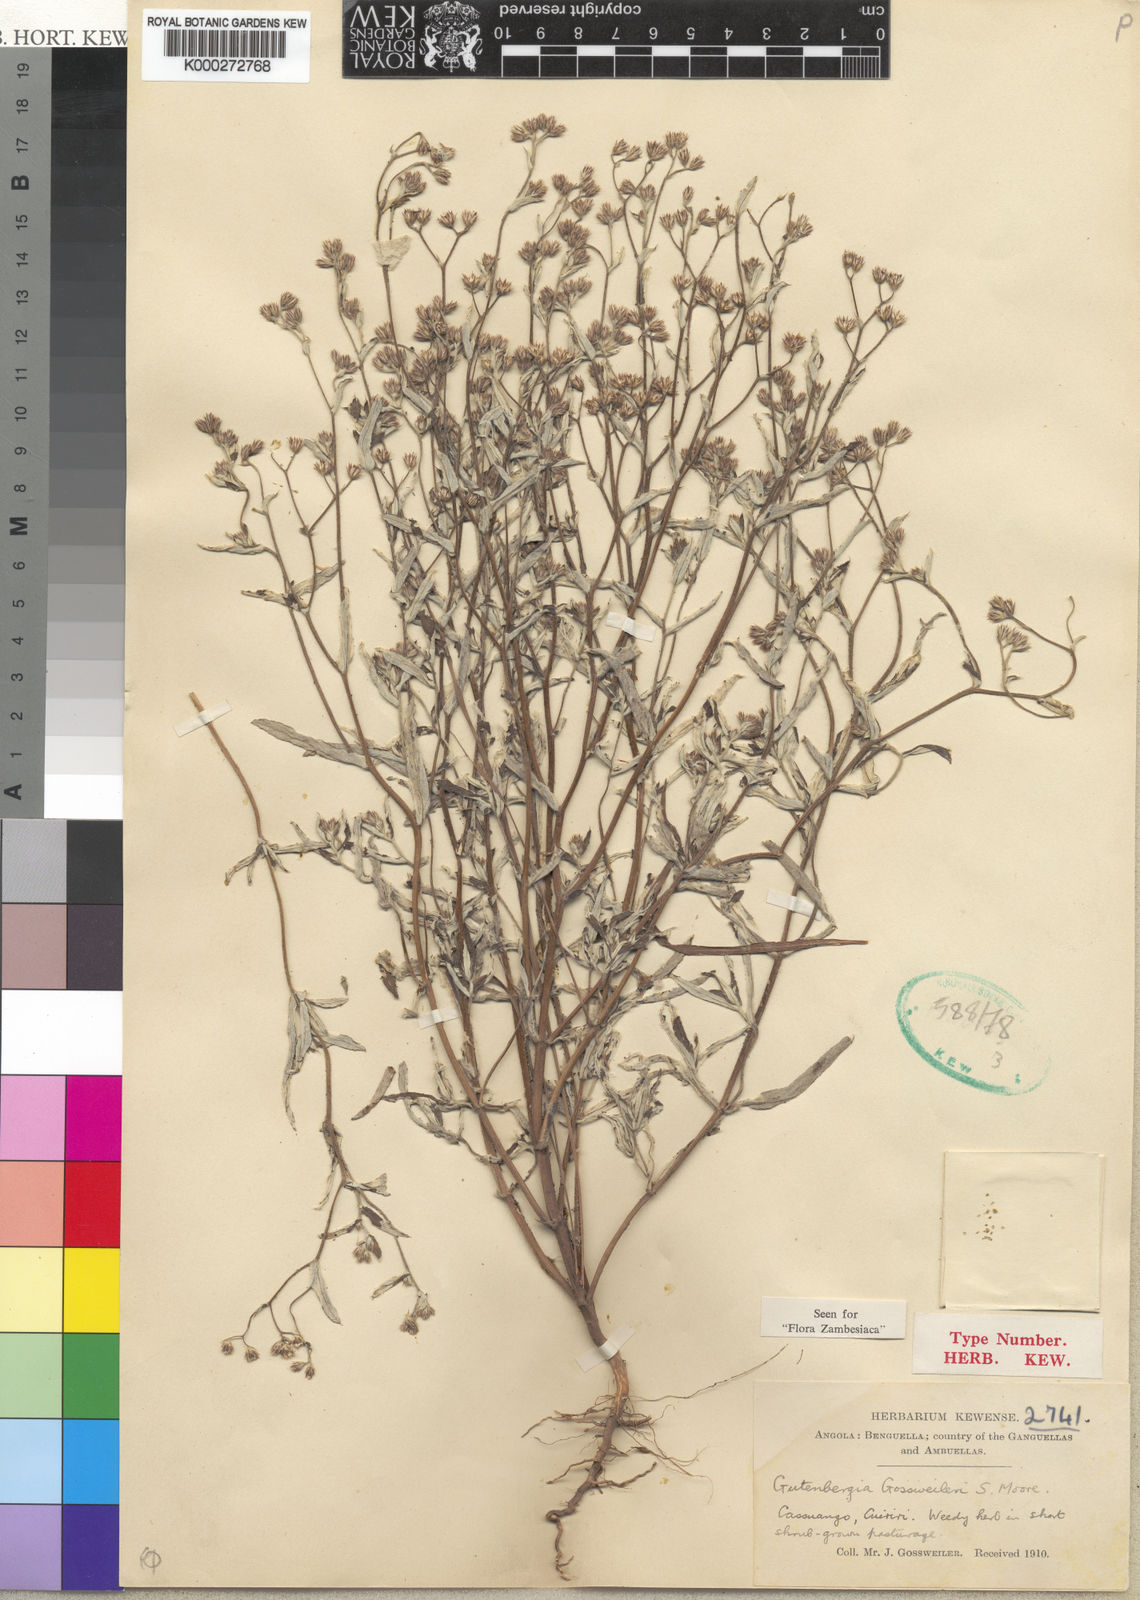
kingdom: Plantae
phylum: Tracheophyta
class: Magnoliopsida
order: Asterales
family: Asteraceae
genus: Gutenbergia
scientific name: Gutenbergia gossweileri
